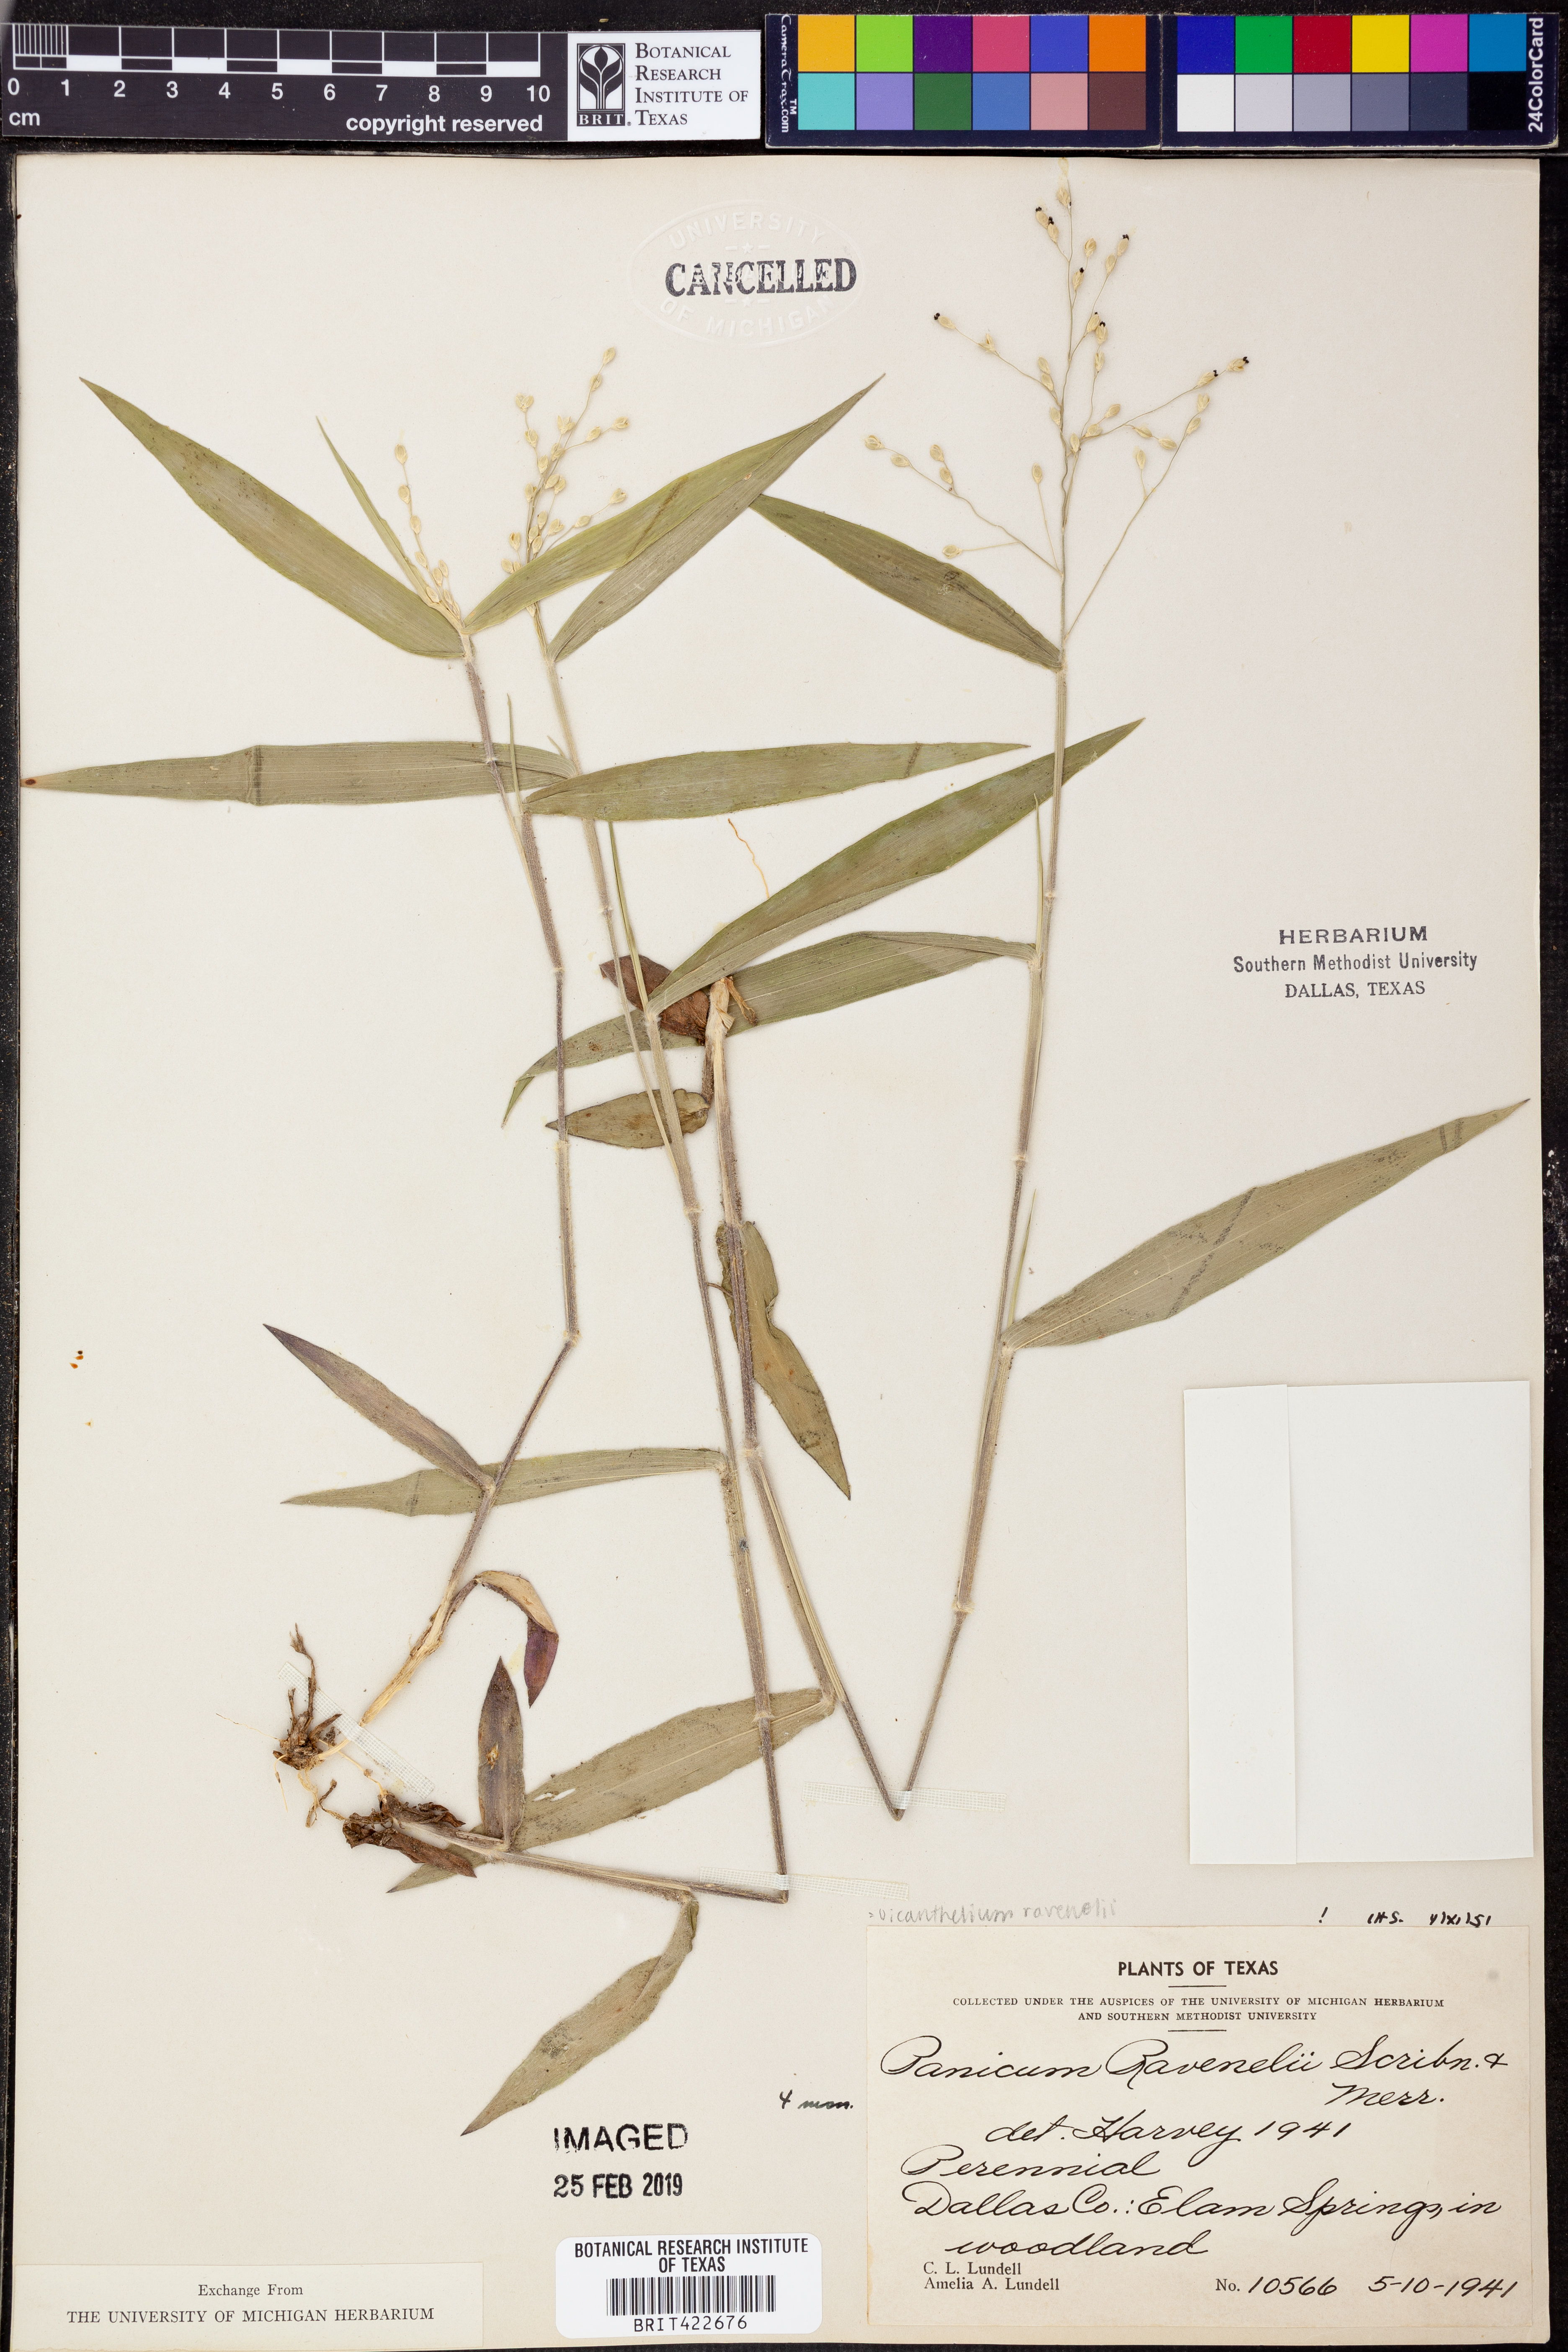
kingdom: Plantae
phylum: Tracheophyta
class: Liliopsida
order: Poales
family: Poaceae
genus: Dichanthelium
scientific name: Dichanthelium ravenelii
